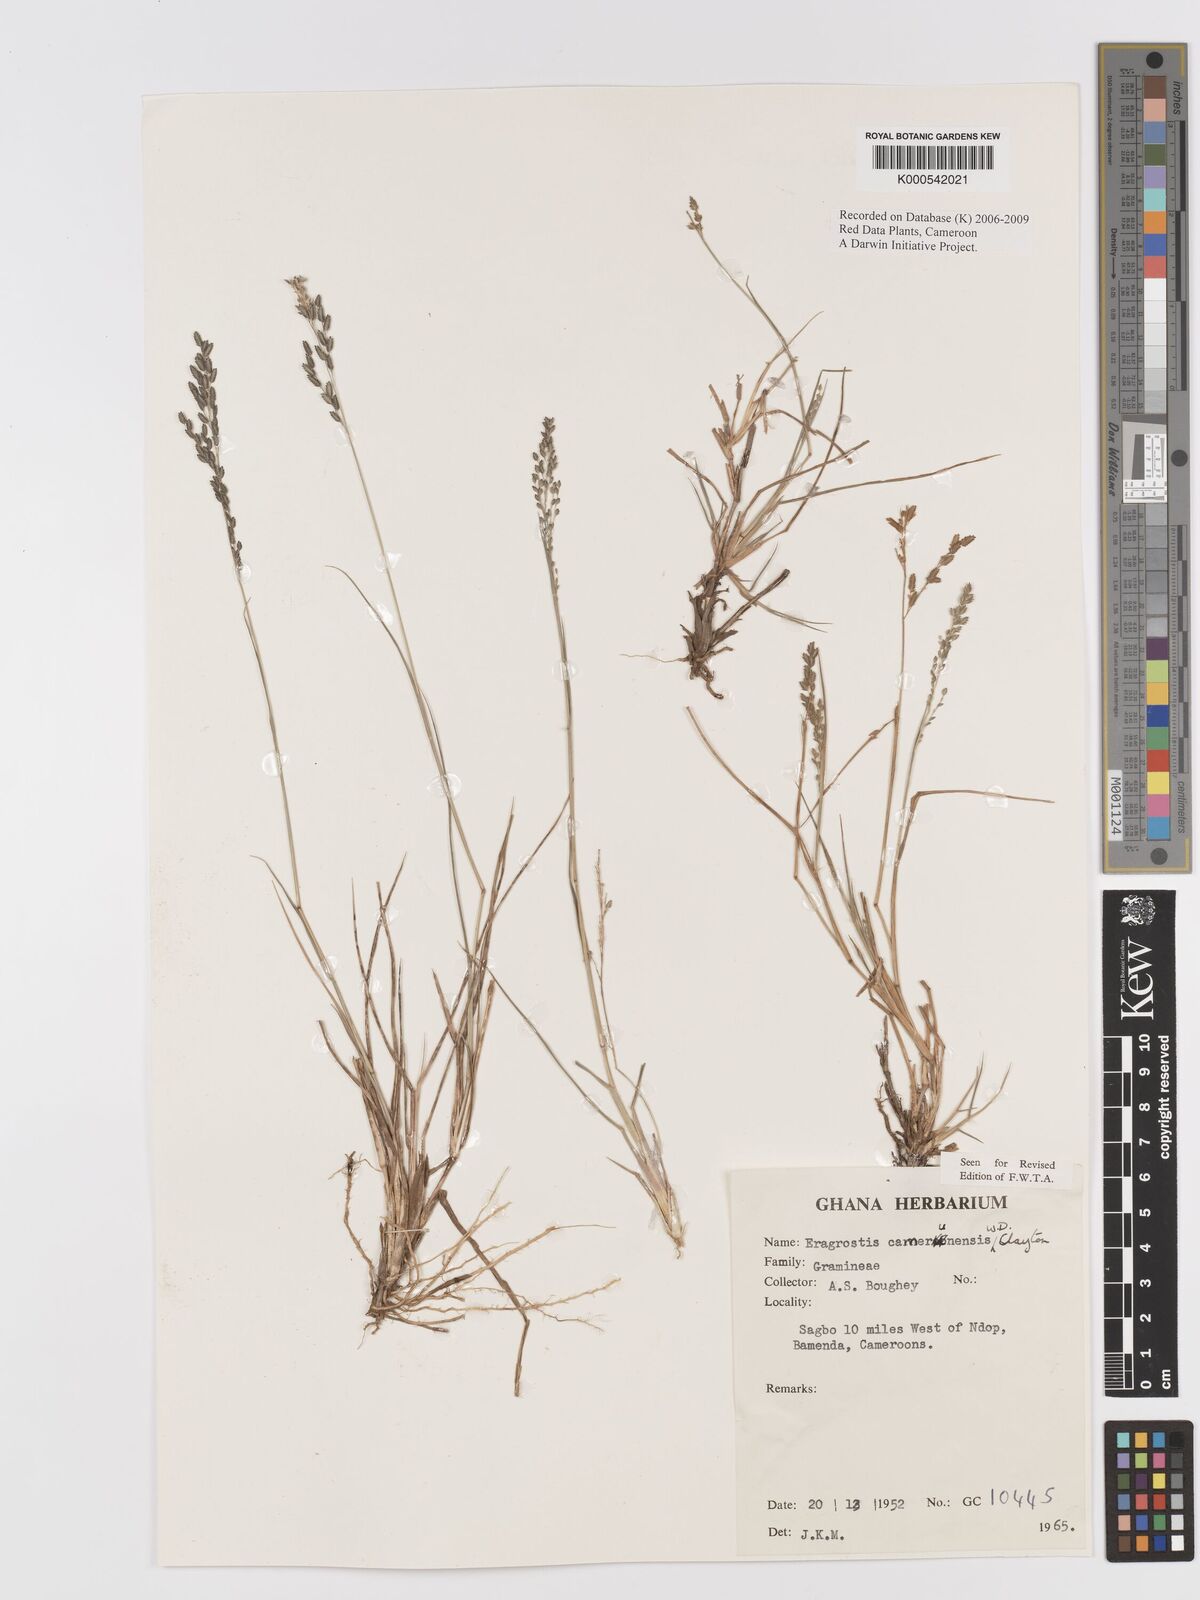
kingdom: Plantae
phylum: Tracheophyta
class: Liliopsida
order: Poales
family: Poaceae
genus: Eragrostis
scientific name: Eragrostis camerunensis
